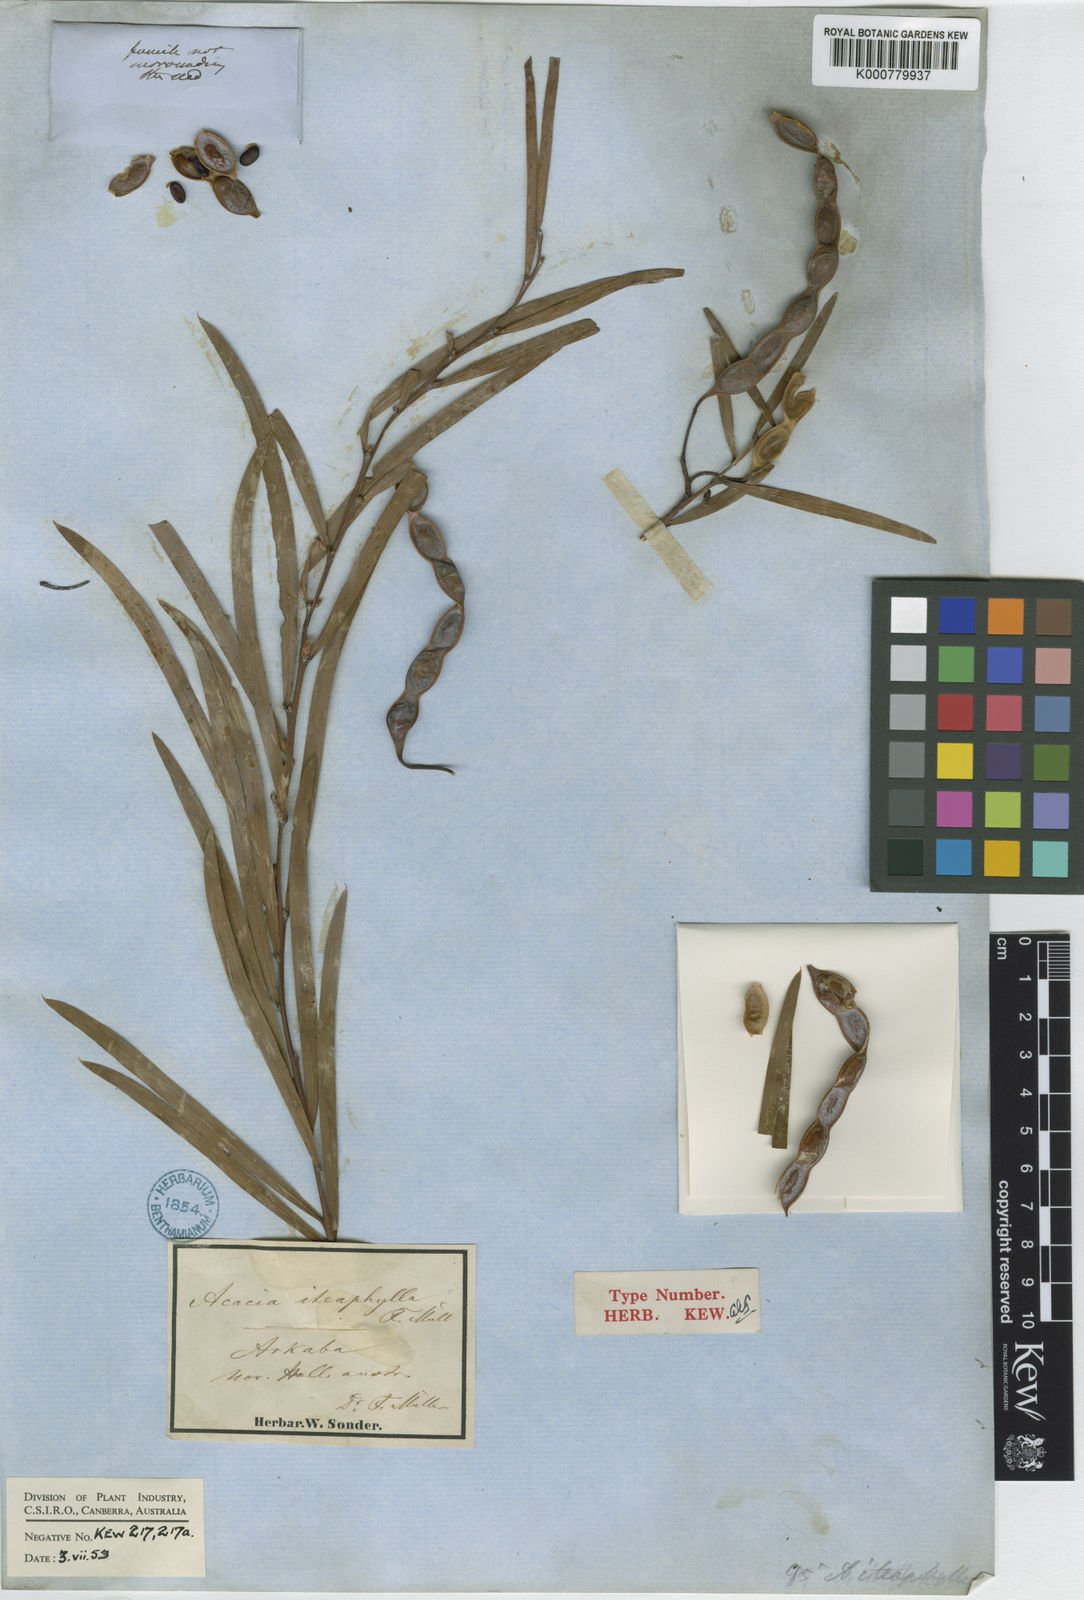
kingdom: Plantae
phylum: Tracheophyta
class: Magnoliopsida
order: Fabales
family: Fabaceae
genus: Acacia
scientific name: Acacia
